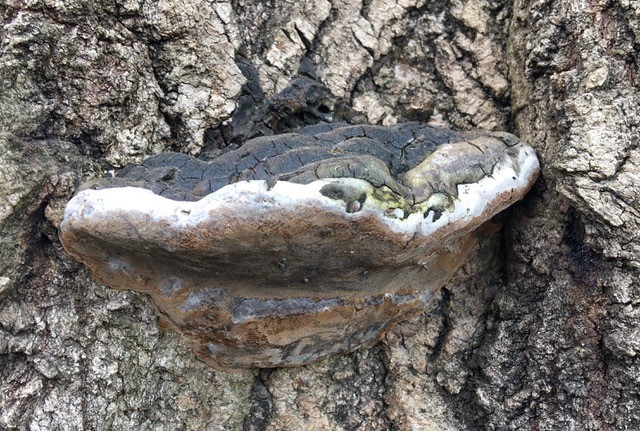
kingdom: Fungi
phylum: Basidiomycota
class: Agaricomycetes
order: Hymenochaetales
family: Hymenochaetaceae
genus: Phellinus
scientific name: Phellinus populicola
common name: poppel-ildporesvamp
